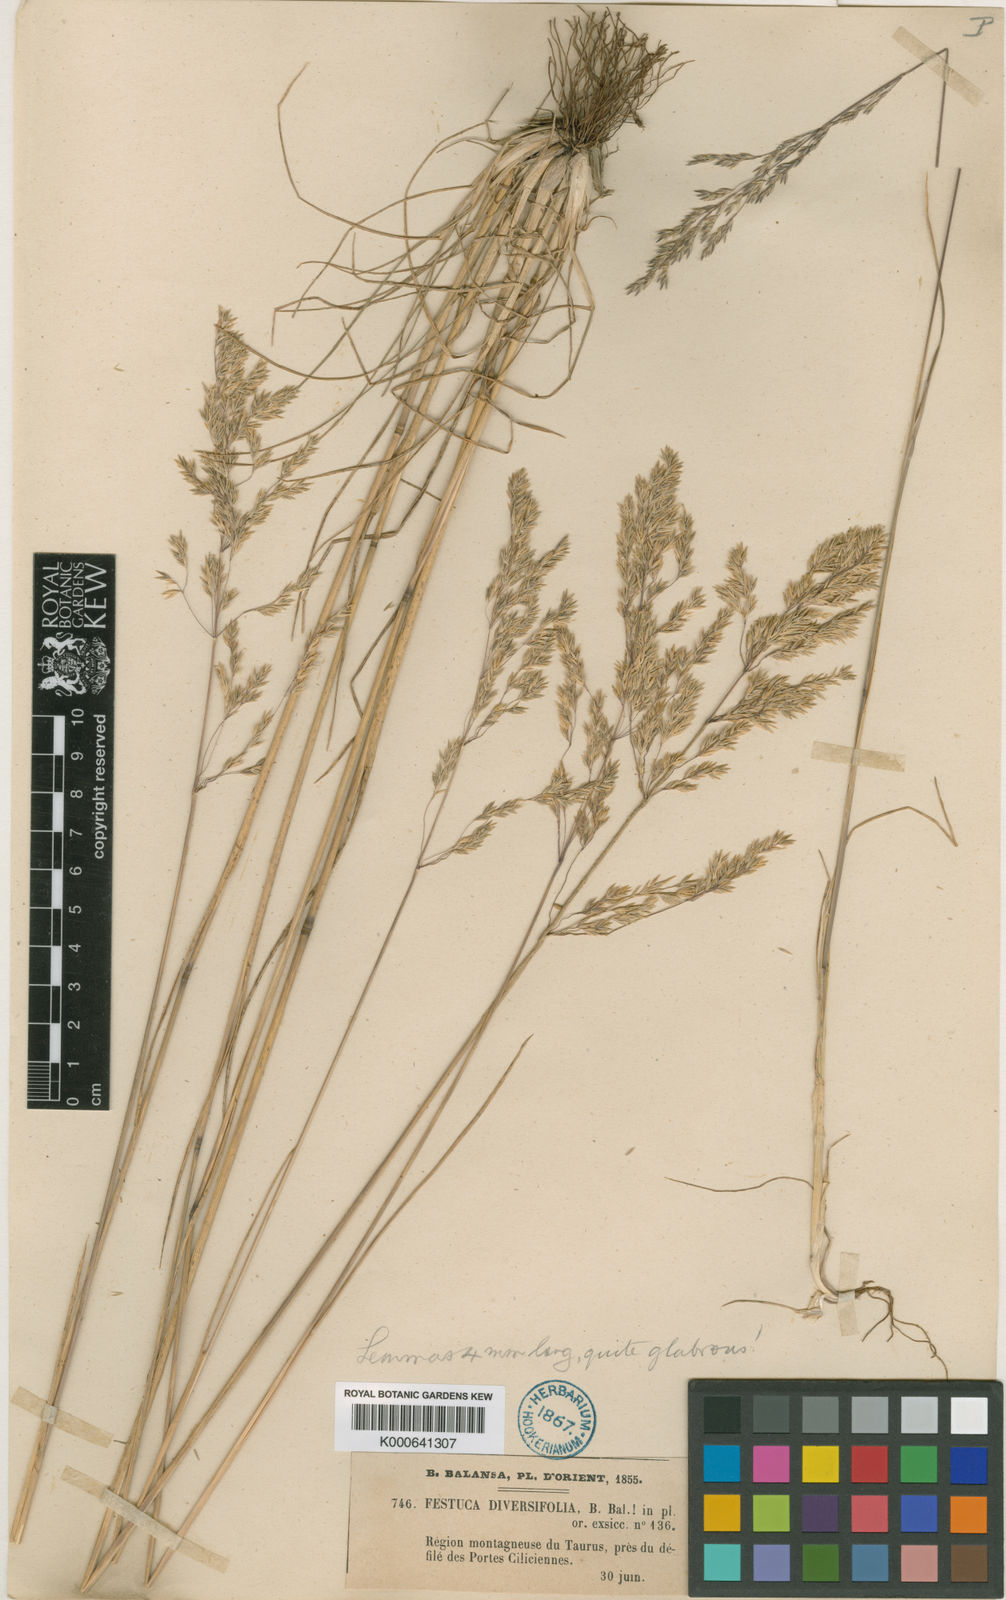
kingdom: Plantae
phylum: Tracheophyta
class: Liliopsida
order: Poales
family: Poaceae
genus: Poa
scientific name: Poa diversifolia
